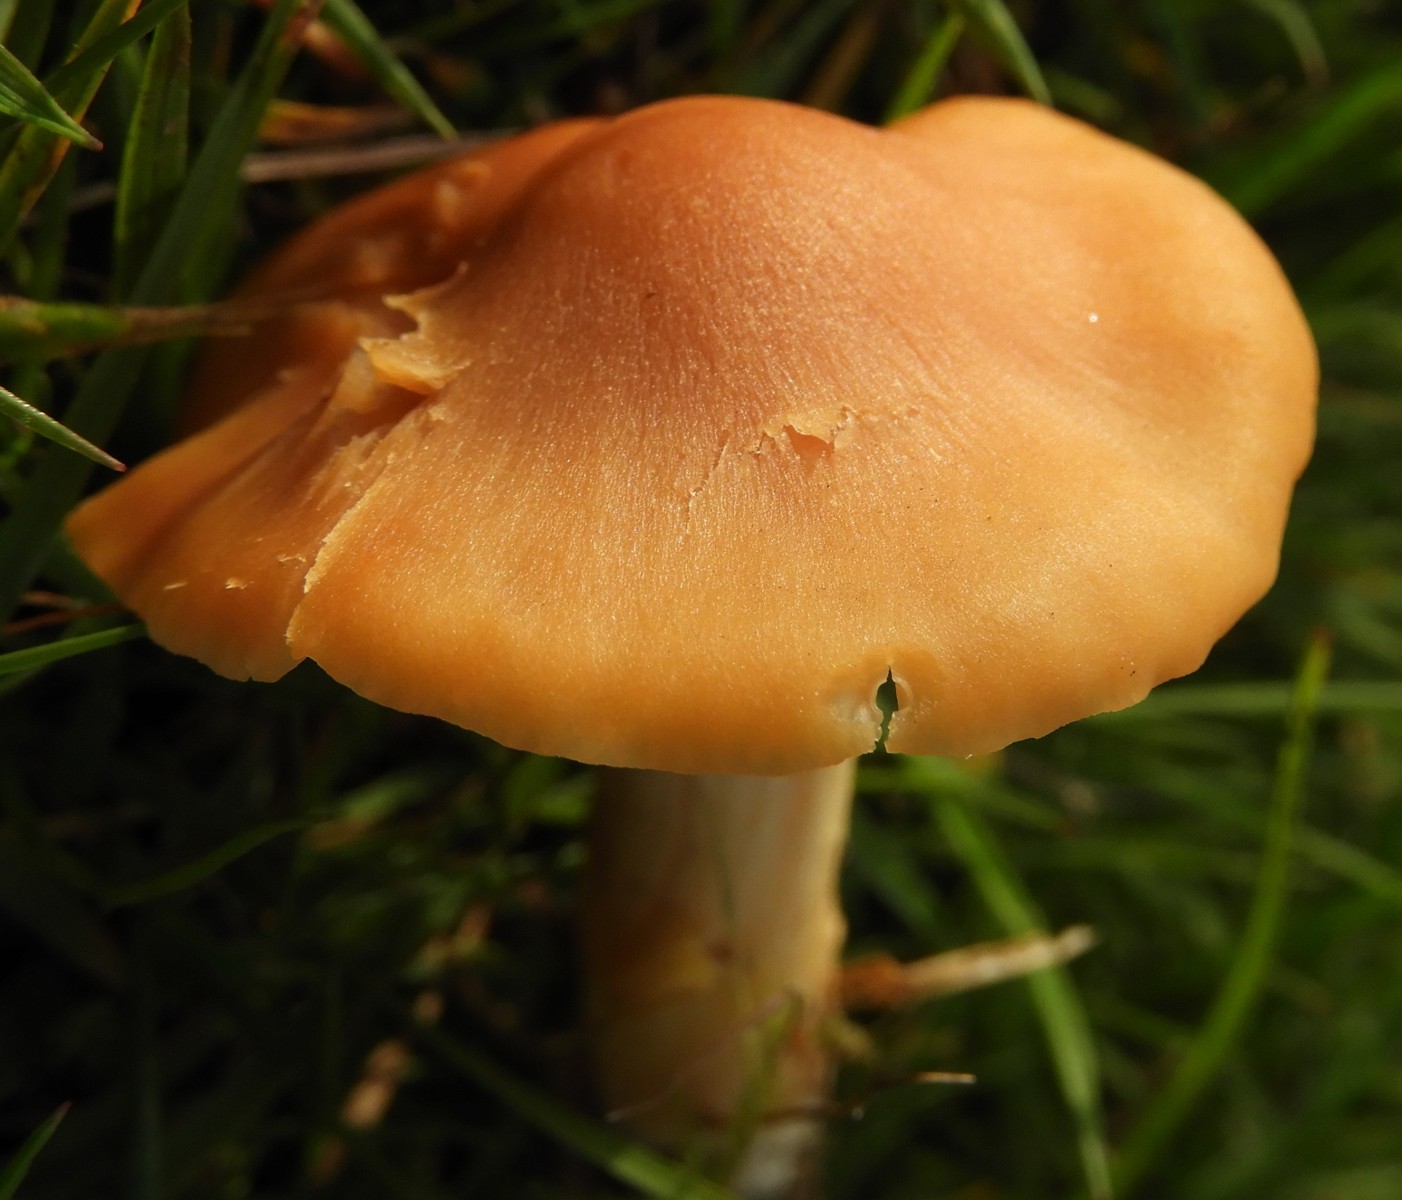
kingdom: Fungi
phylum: Basidiomycota
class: Agaricomycetes
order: Agaricales
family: Hygrophoraceae
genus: Cuphophyllus
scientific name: Cuphophyllus pratensis
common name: eng-vokshat
